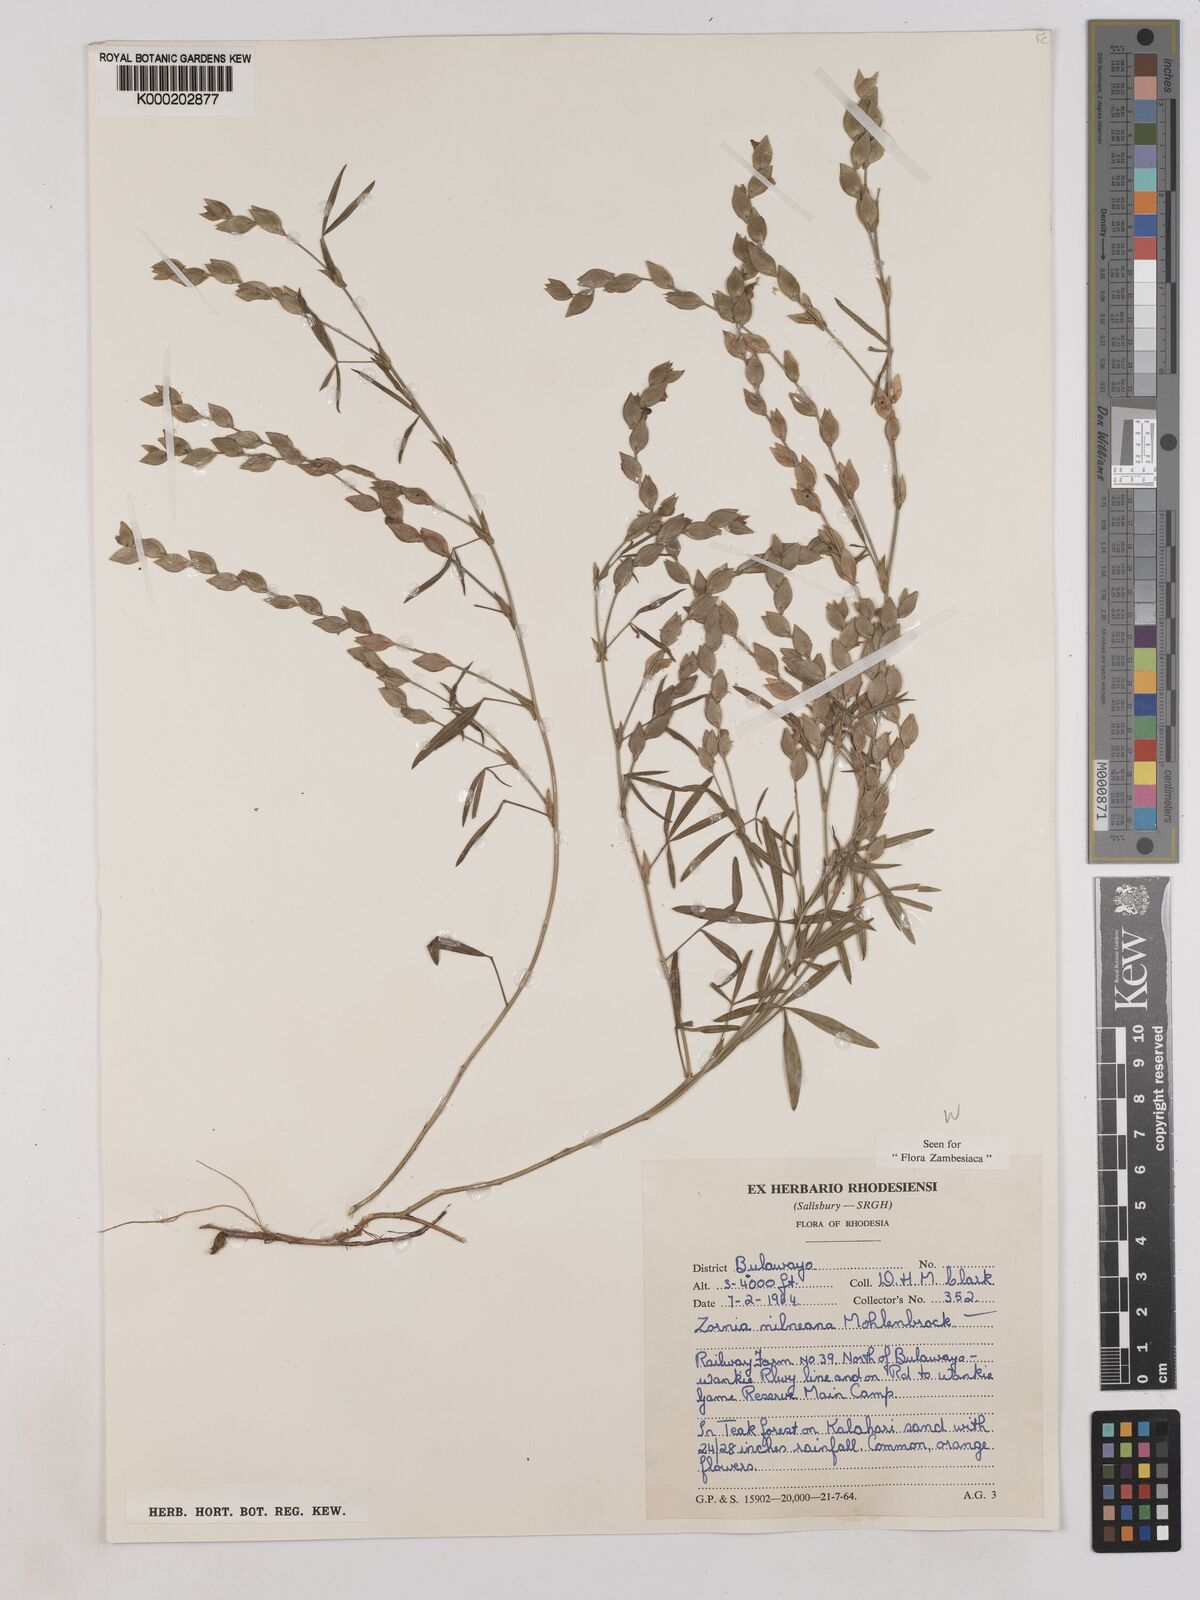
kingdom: Plantae
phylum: Tracheophyta
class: Magnoliopsida
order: Fabales
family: Fabaceae
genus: Zornia
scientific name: Zornia milneana
